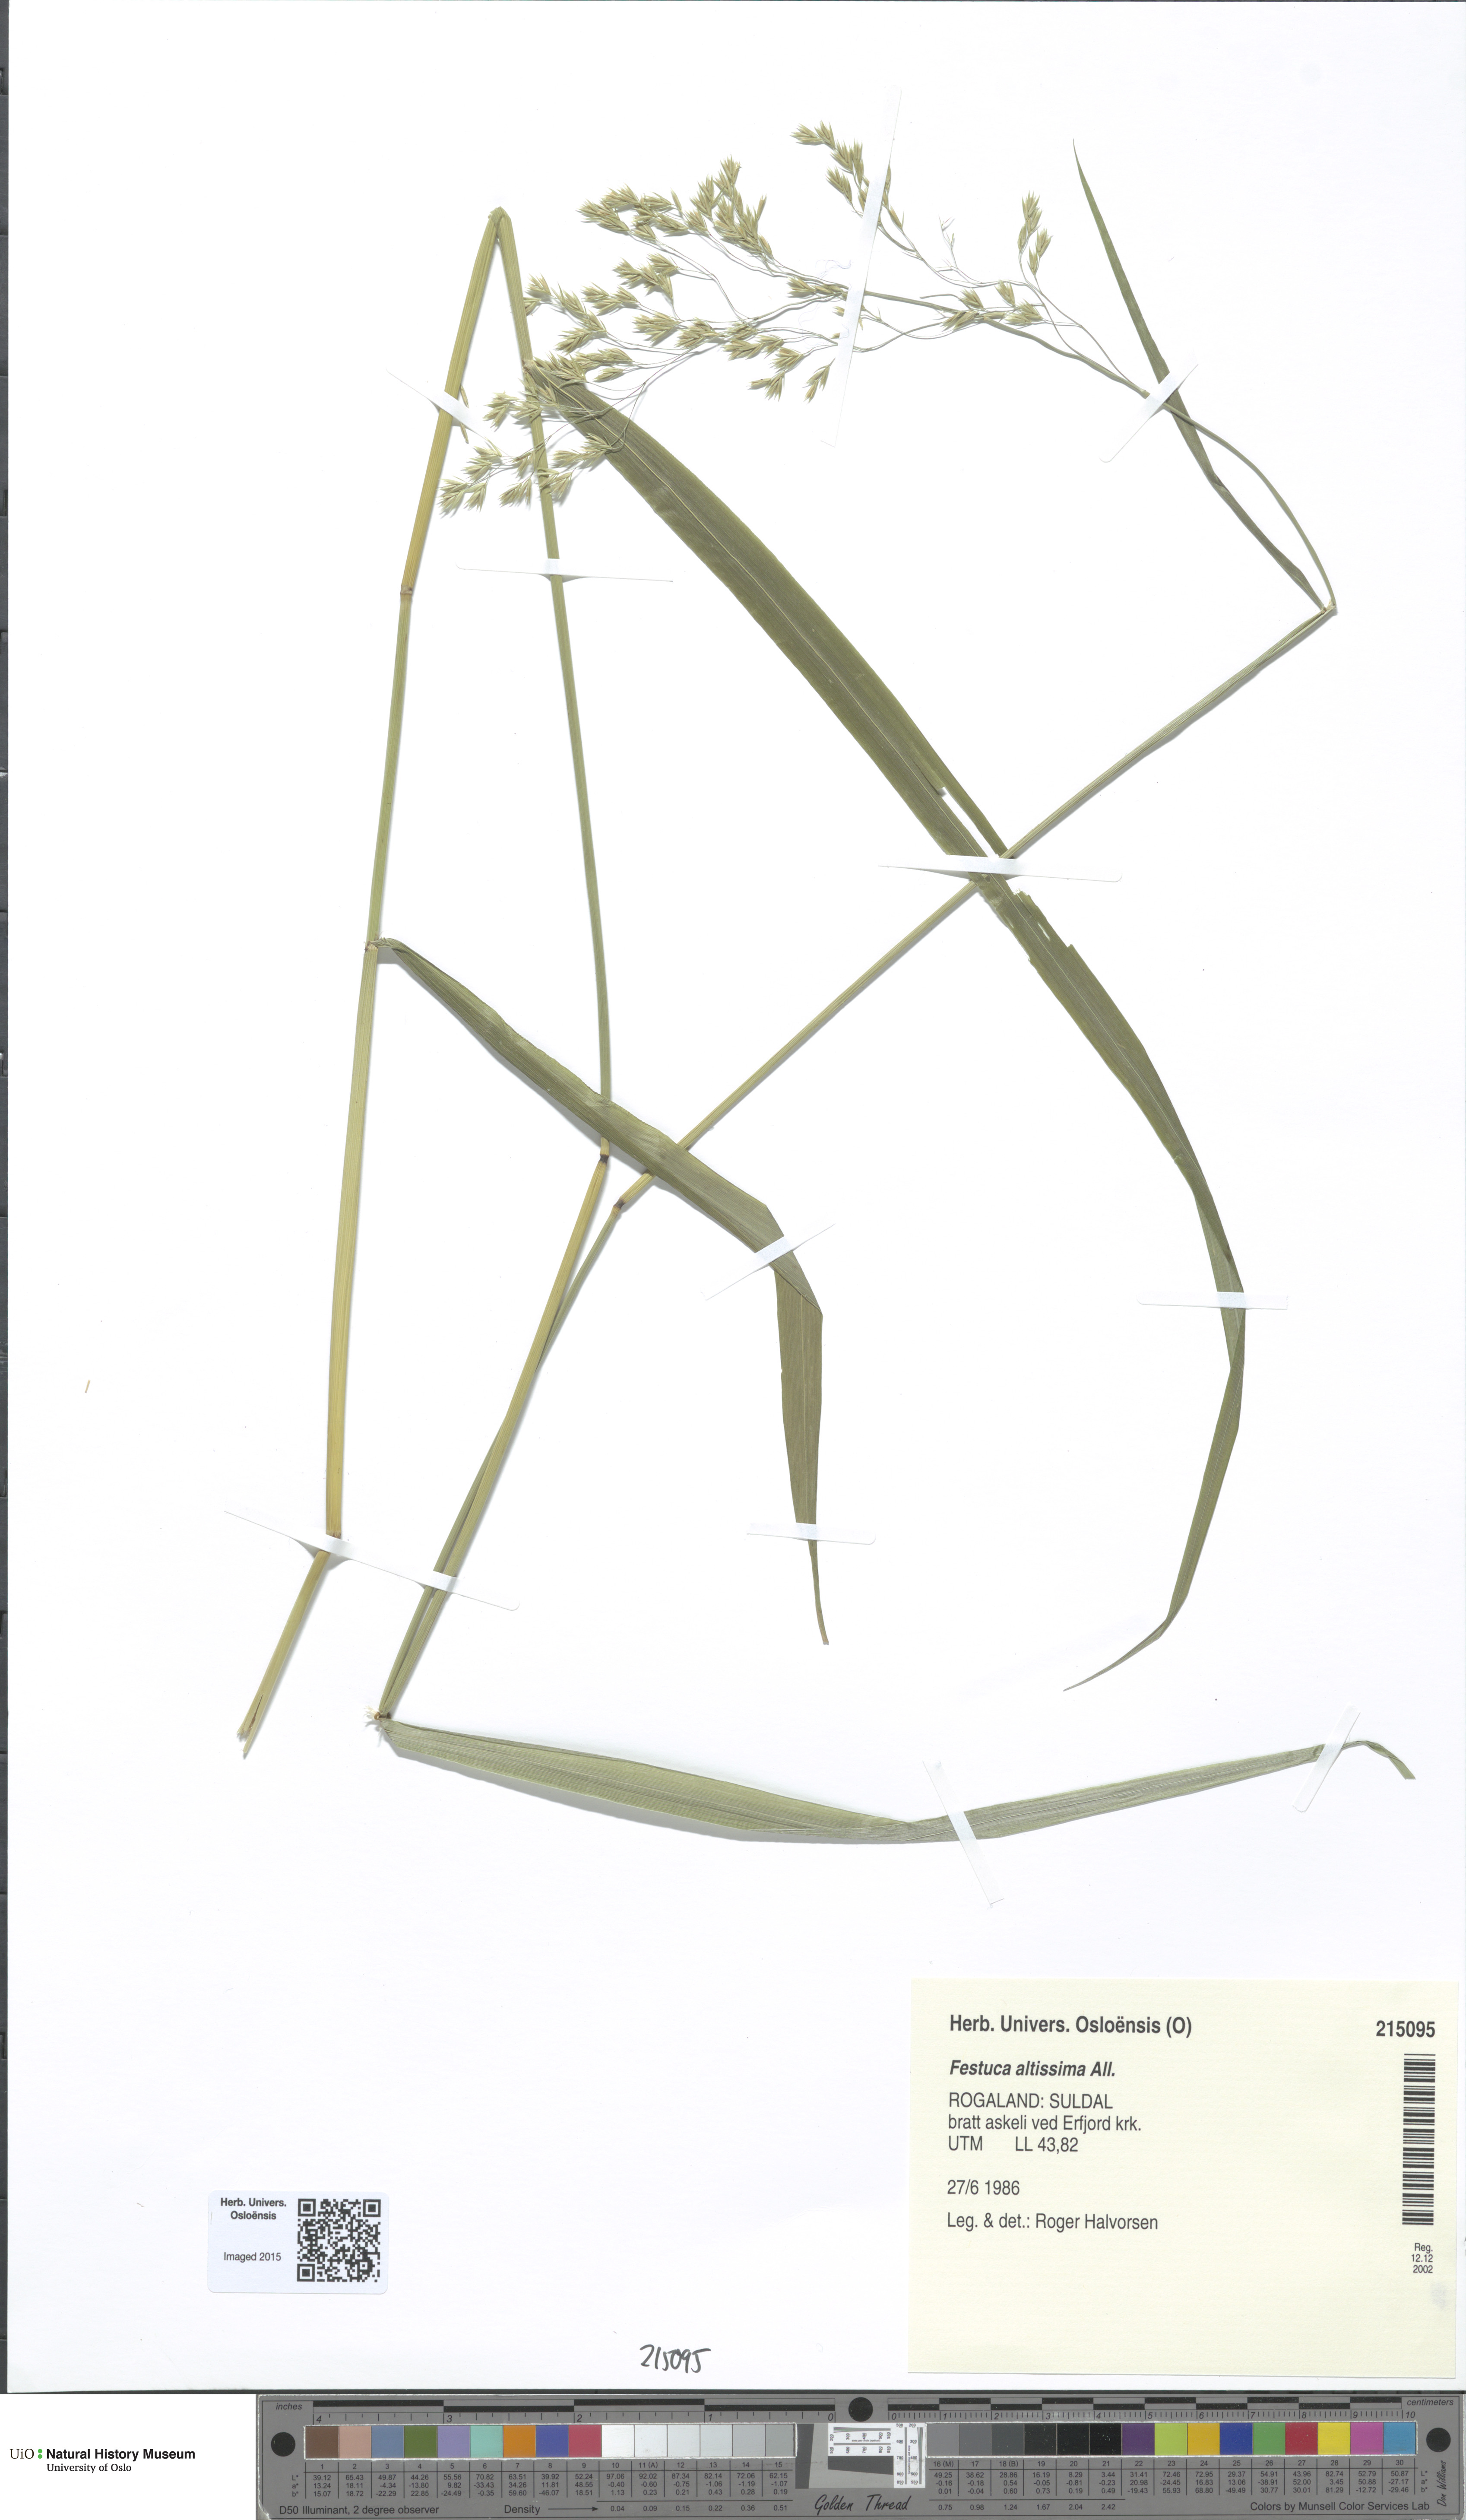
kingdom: Plantae
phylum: Tracheophyta
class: Liliopsida
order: Poales
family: Poaceae
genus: Festuca
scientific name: Festuca altissima
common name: Wood fescue
